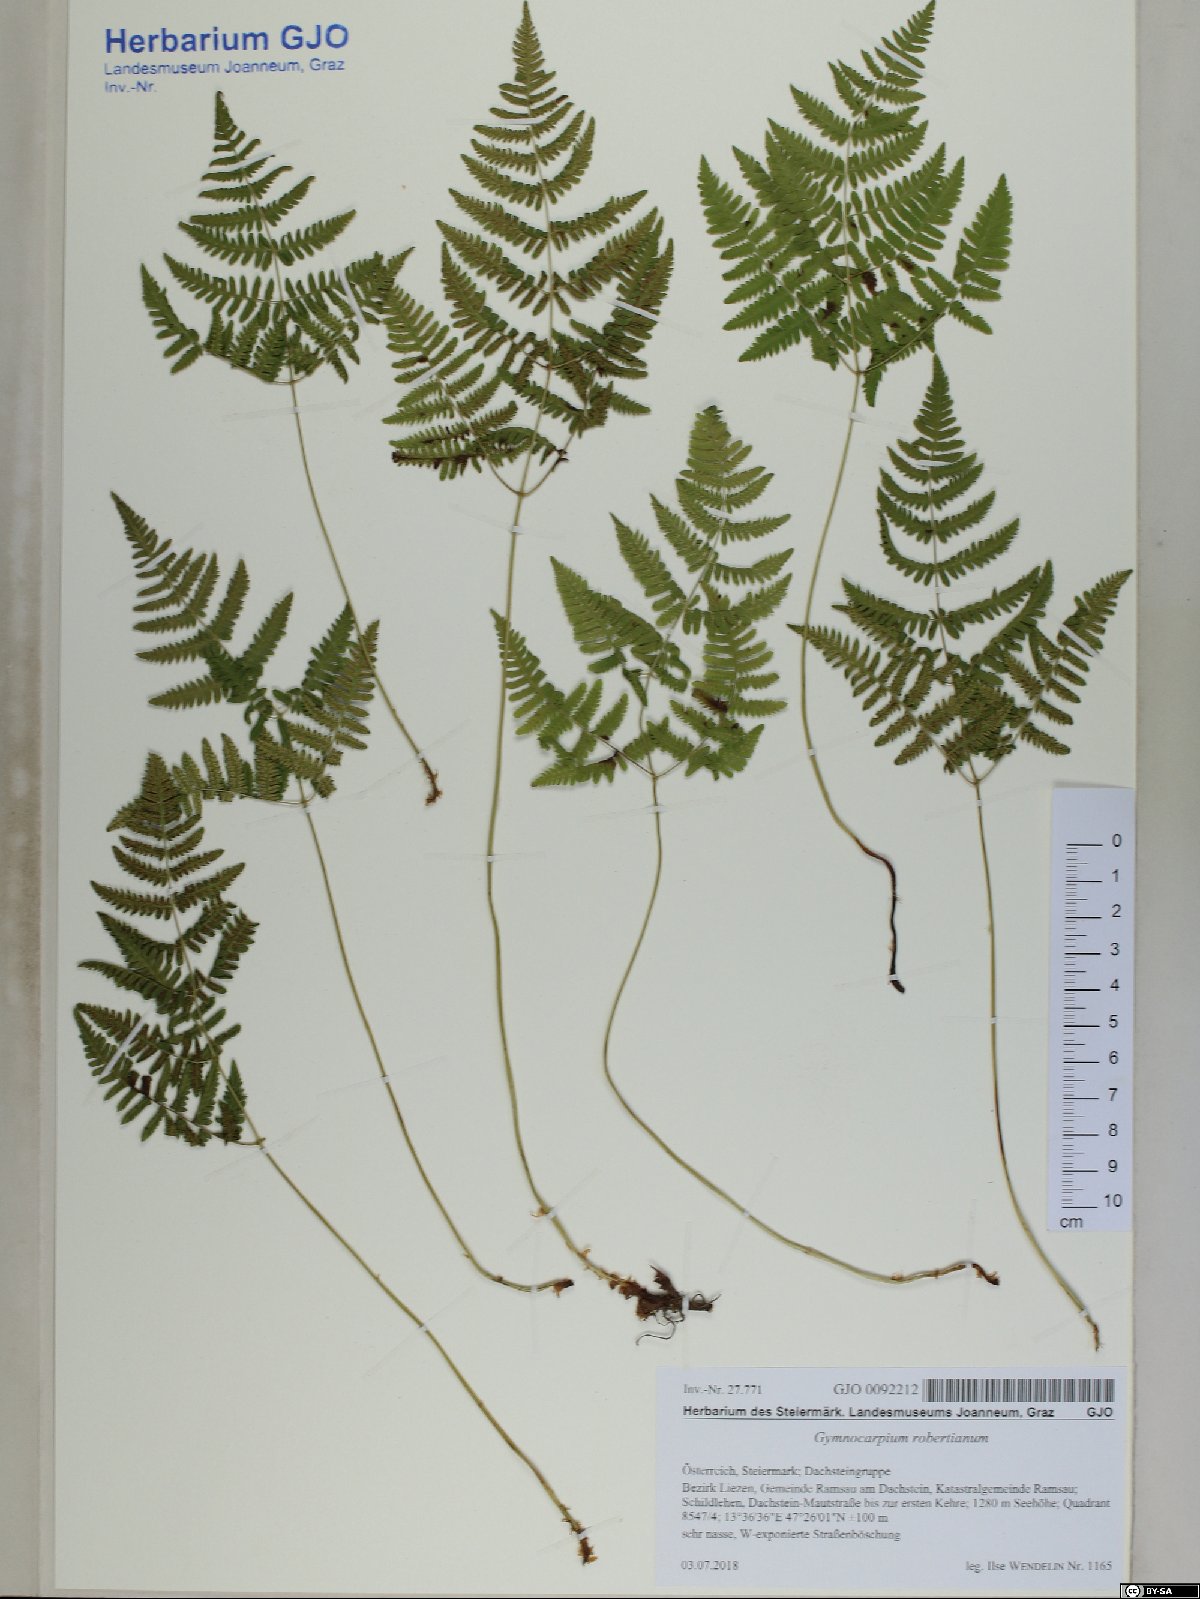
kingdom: Plantae
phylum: Tracheophyta
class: Polypodiopsida
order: Polypodiales
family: Cystopteridaceae
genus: Gymnocarpium
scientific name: Gymnocarpium robertianum
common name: Limestone fern
